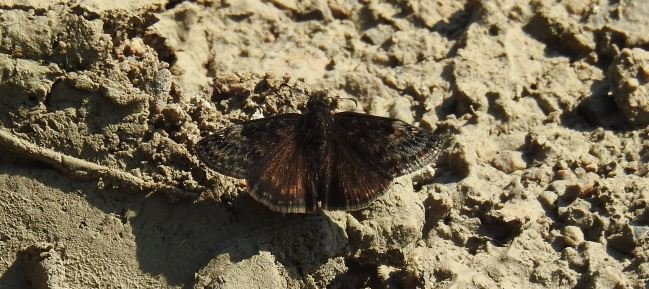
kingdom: Animalia
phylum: Arthropoda
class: Insecta
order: Lepidoptera
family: Hesperiidae
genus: Gesta
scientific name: Gesta
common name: Wild Indigo Duskywing
